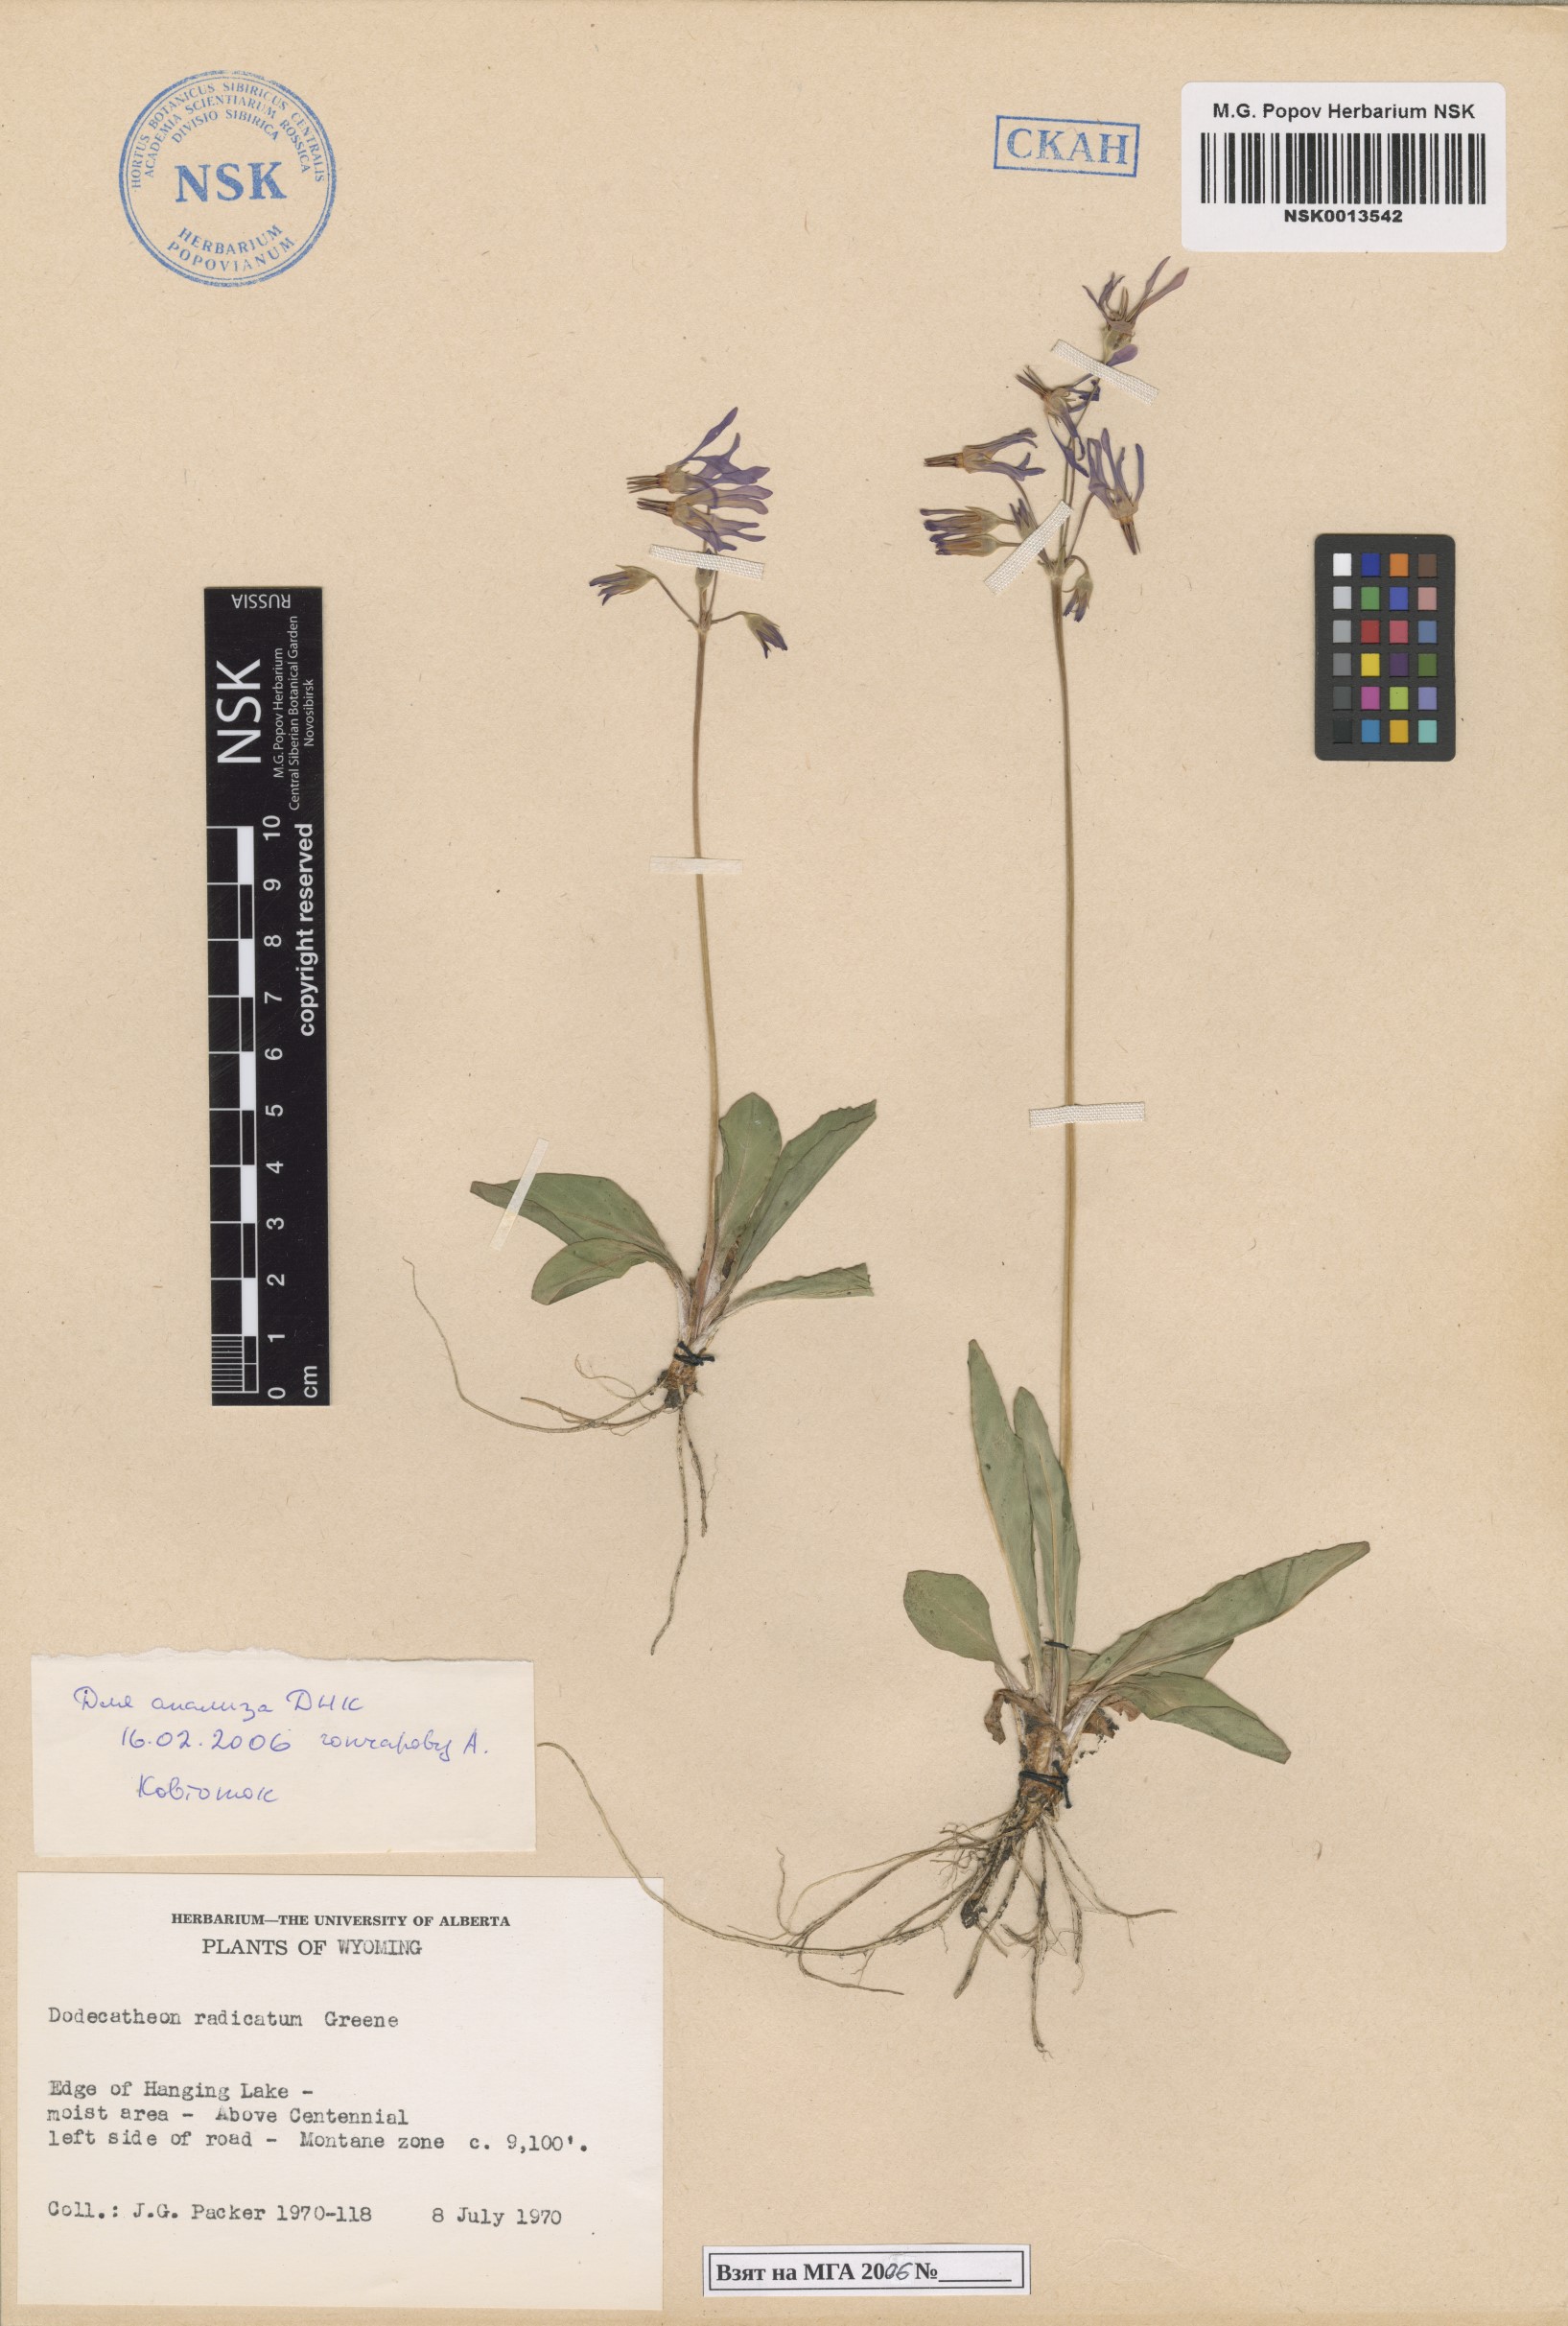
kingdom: Plantae
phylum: Tracheophyta
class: Magnoliopsida
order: Ericales
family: Primulaceae
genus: Dodecatheon
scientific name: Dodecatheon pulchellum
